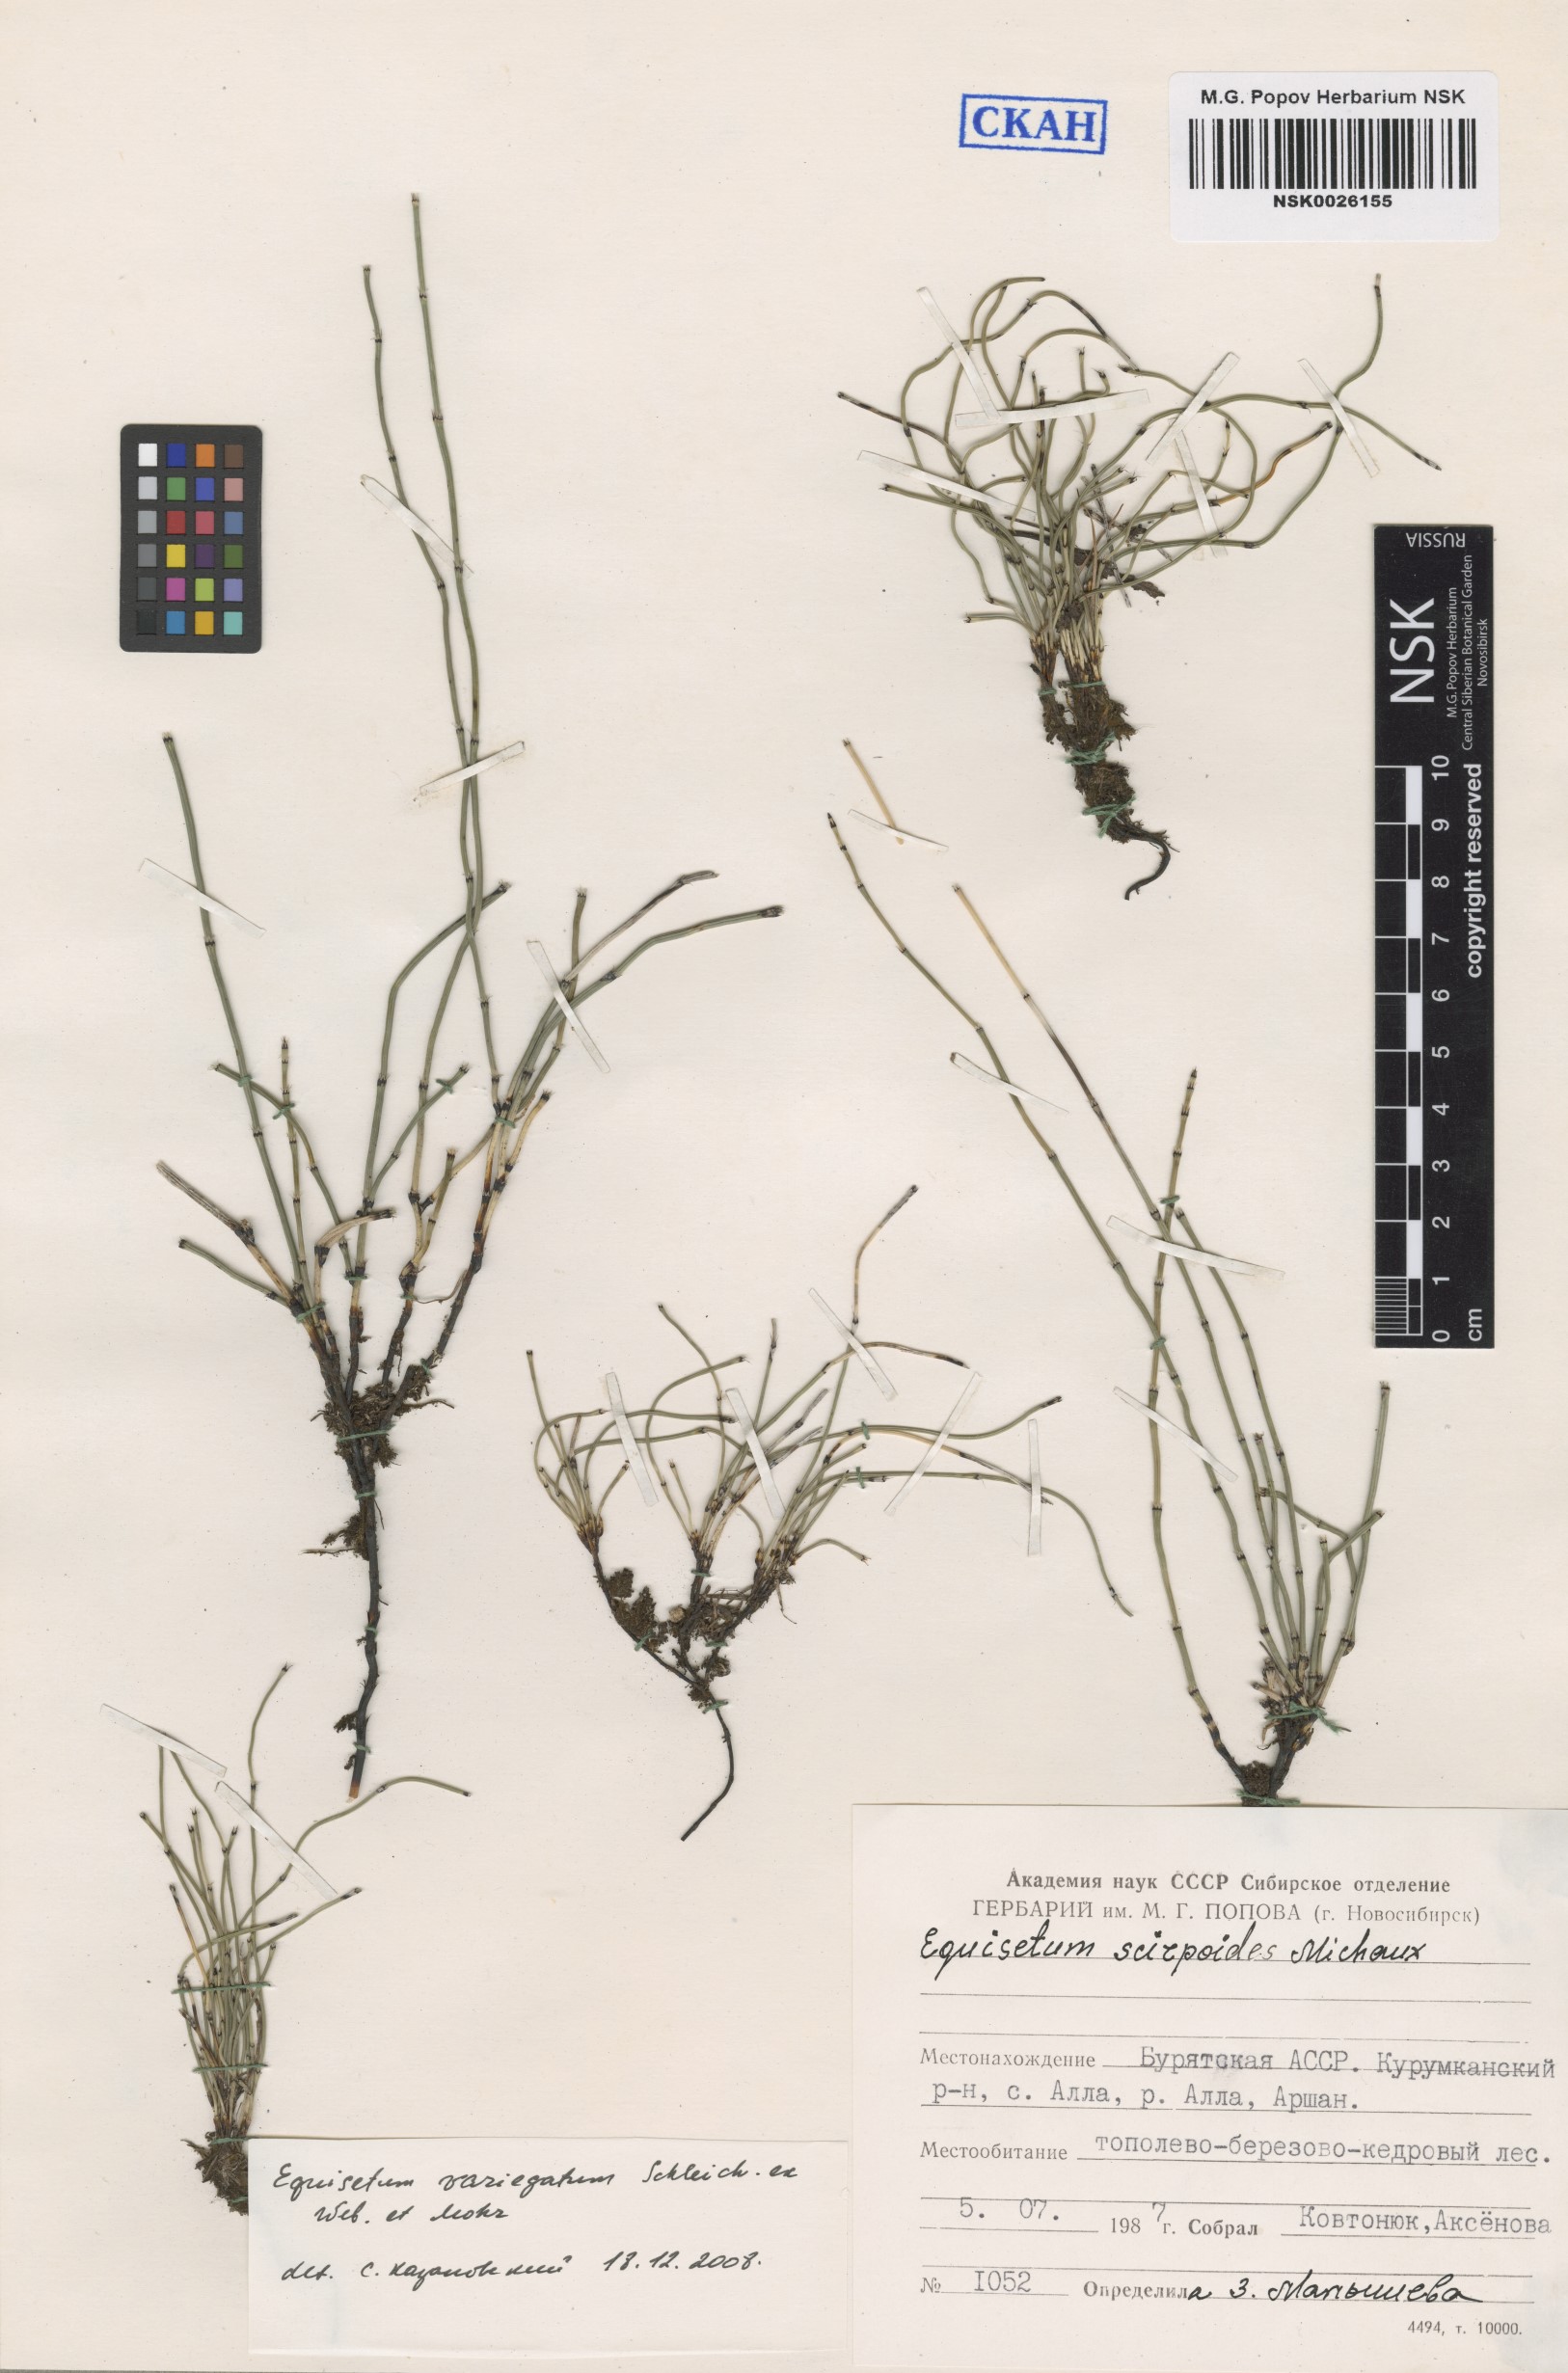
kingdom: Plantae
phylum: Tracheophyta
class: Polypodiopsida
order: Equisetales
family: Equisetaceae
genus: Equisetum
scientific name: Equisetum variegatum
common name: Variegated horsetail
